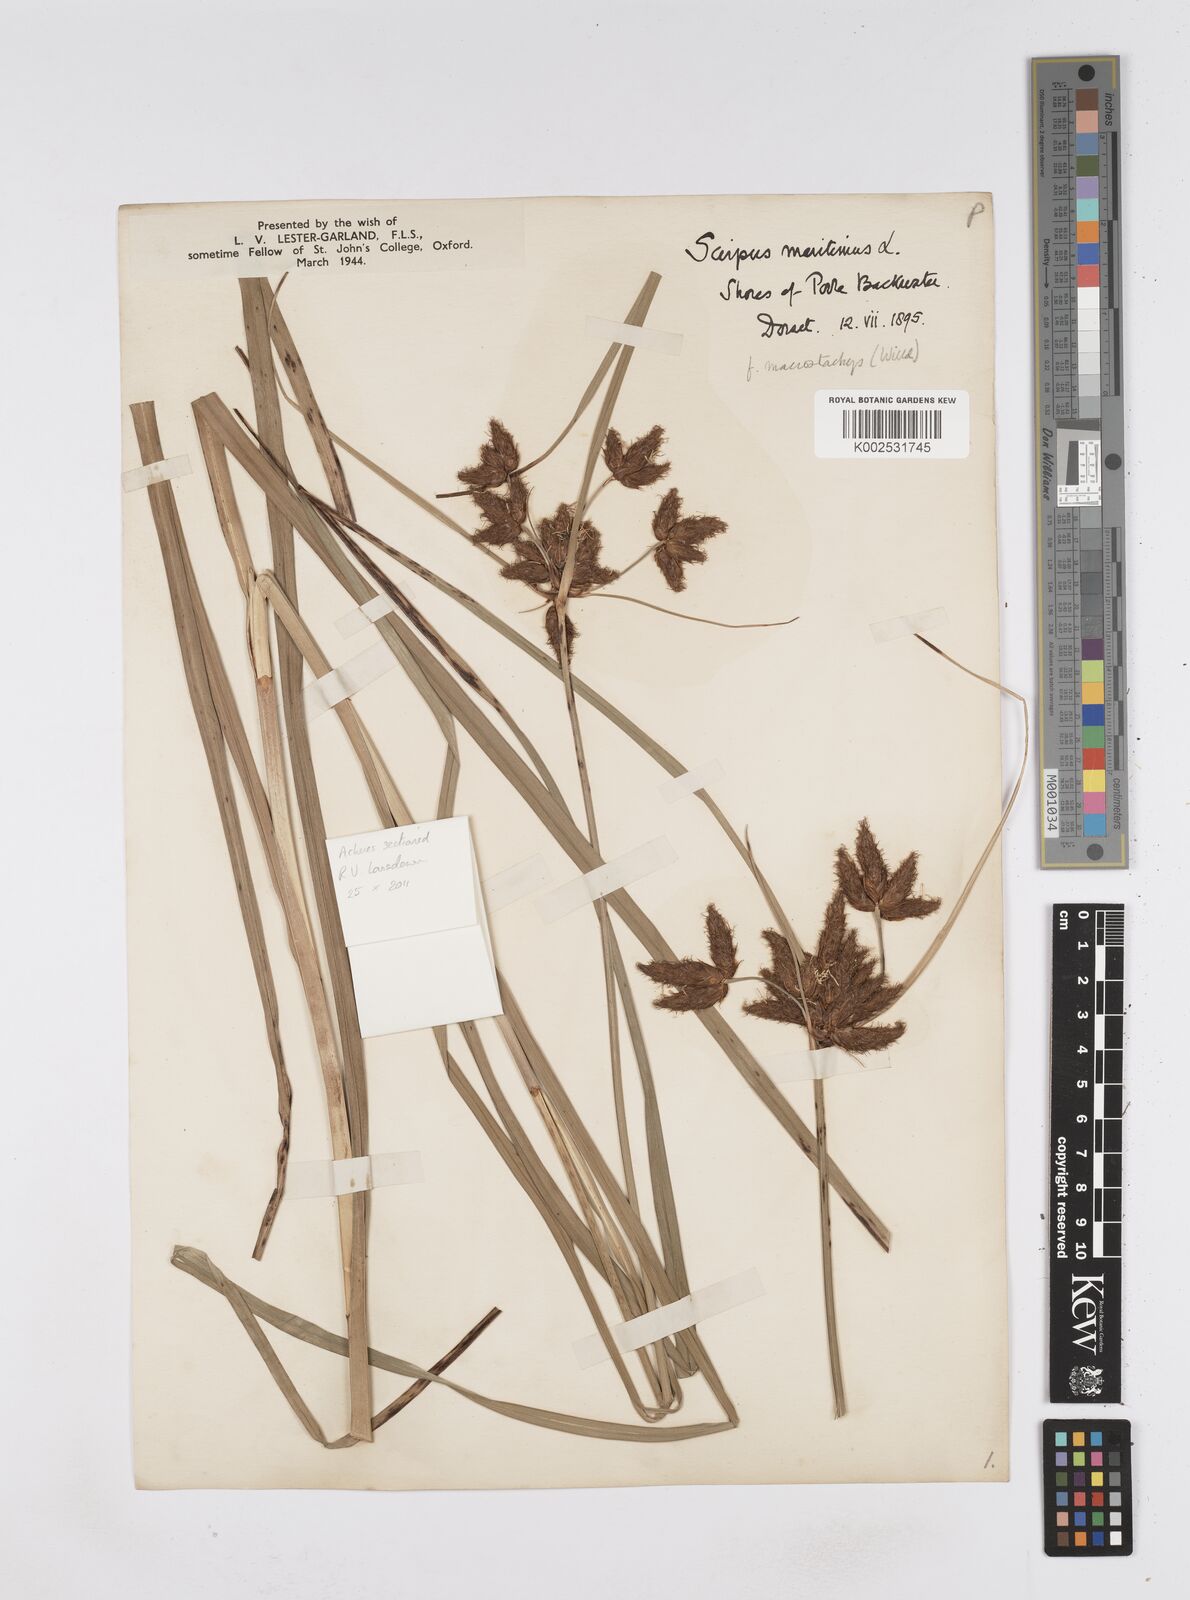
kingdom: Plantae
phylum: Tracheophyta
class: Liliopsida
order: Poales
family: Cyperaceae
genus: Bolboschoenus
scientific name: Bolboschoenus maritimus
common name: Sea club-rush
